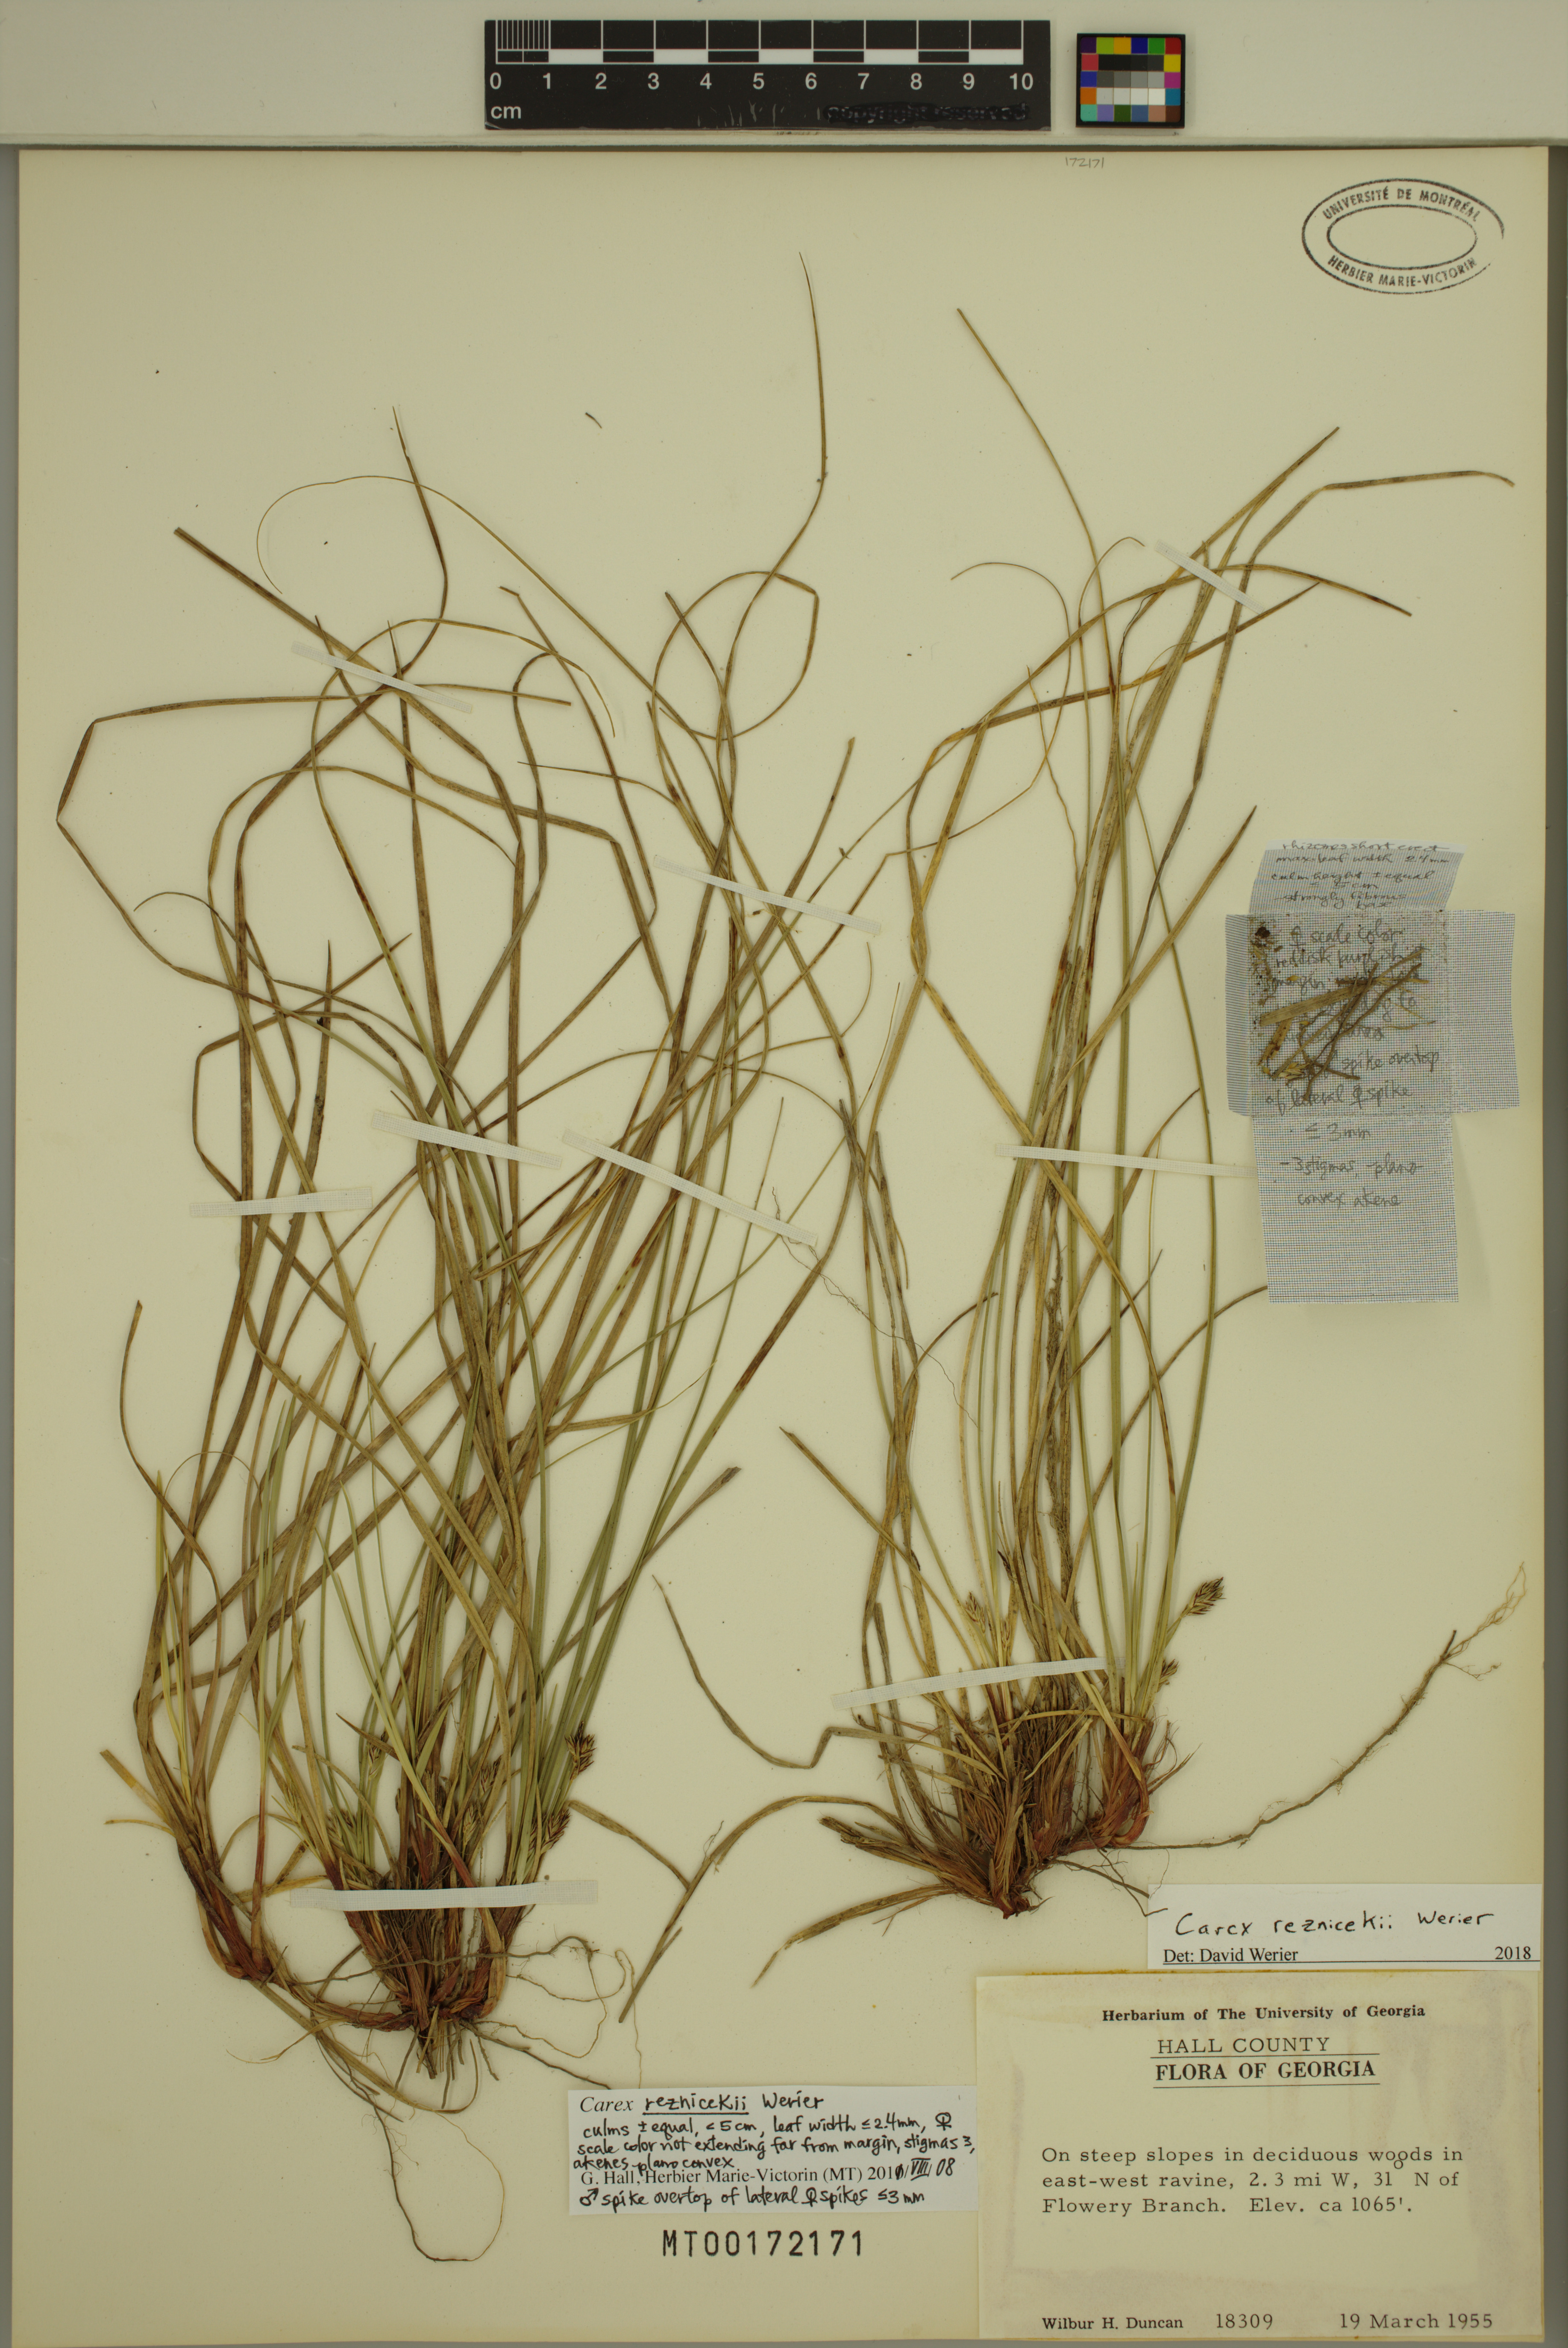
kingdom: Plantae
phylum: Tracheophyta
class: Liliopsida
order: Poales
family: Cyperaceae
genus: Carex
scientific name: Carex reznicekii
